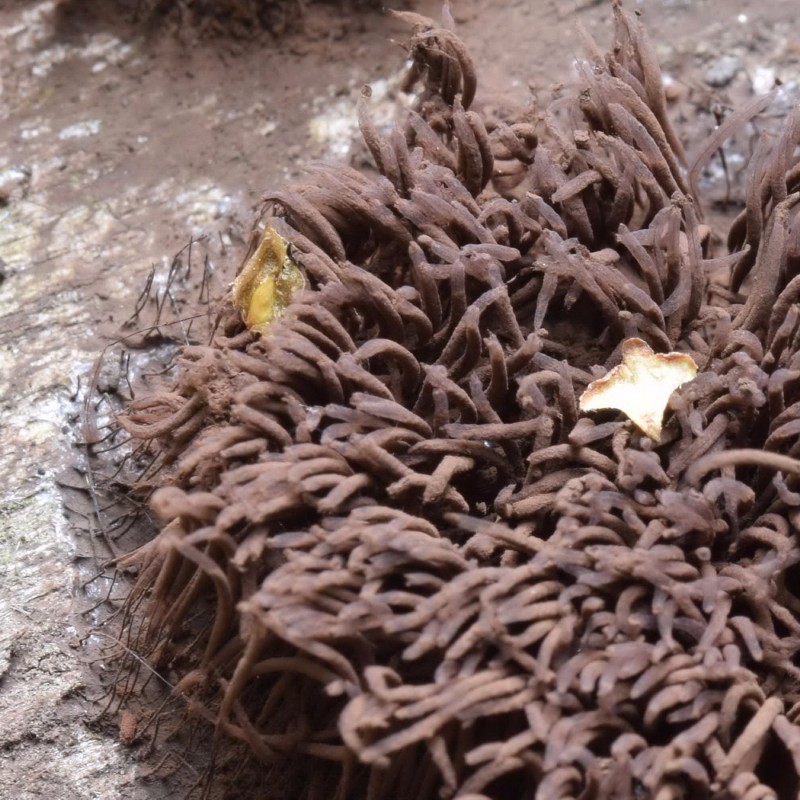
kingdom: Protozoa
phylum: Mycetozoa
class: Myxomycetes
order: Stemonitidales
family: Stemonitidaceae
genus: Stemonitis
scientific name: Stemonitis fusca
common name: sodbrun støvkølle
